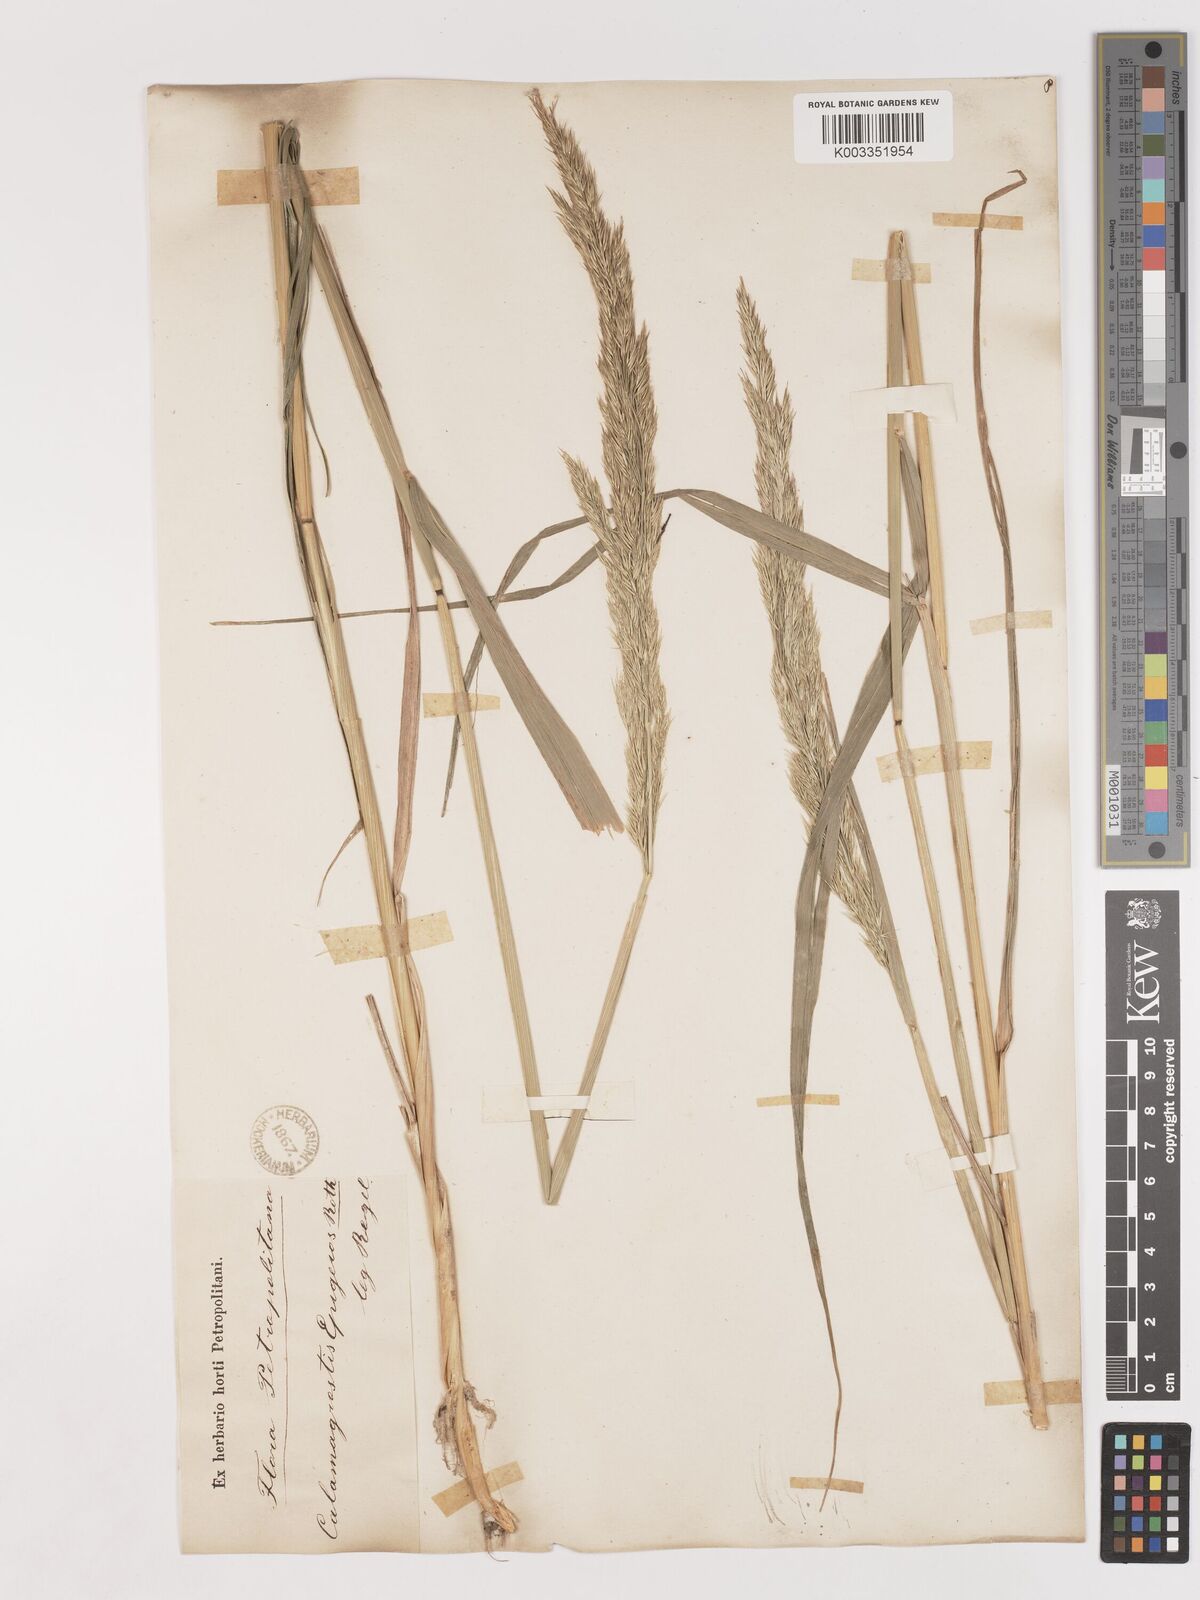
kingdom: Plantae
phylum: Tracheophyta
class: Liliopsida
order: Poales
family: Poaceae
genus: Calamagrostis
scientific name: Calamagrostis epigejos
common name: Wood small-reed
